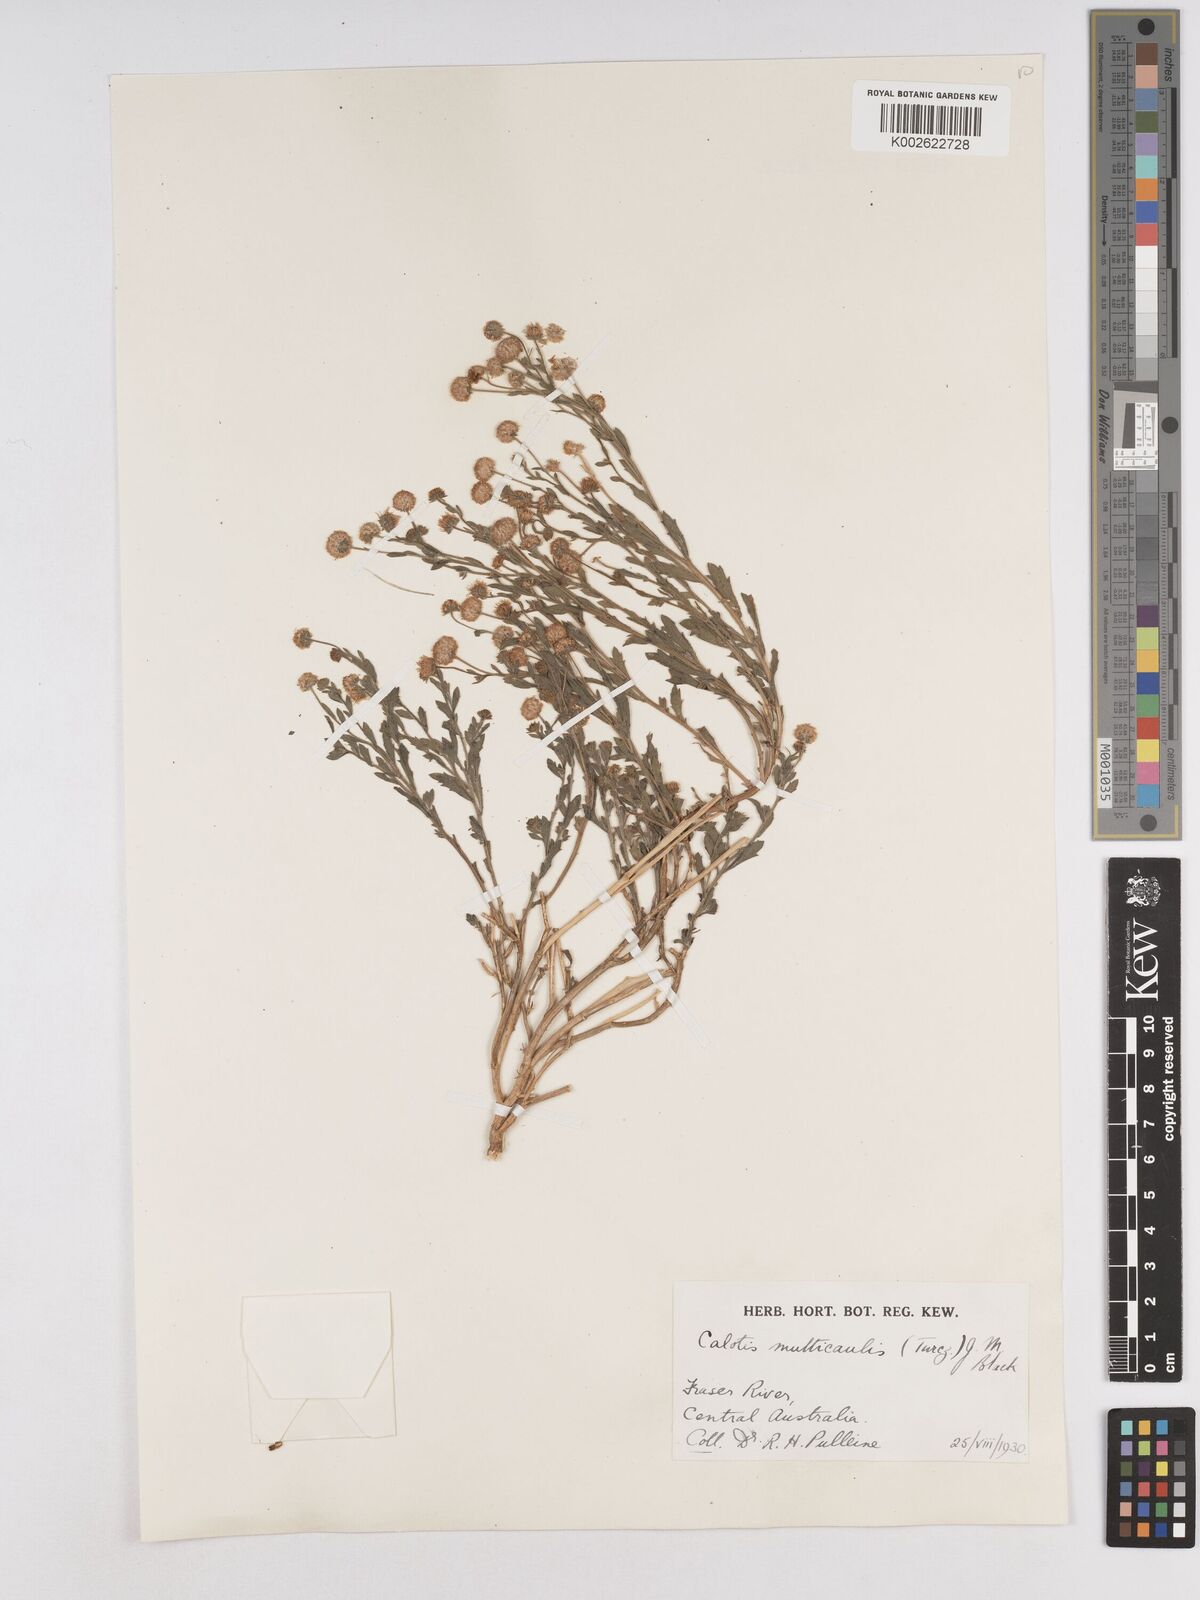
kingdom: Plantae
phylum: Tracheophyta
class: Magnoliopsida
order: Asterales
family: Asteraceae
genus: Calotis
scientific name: Calotis multicaulis
